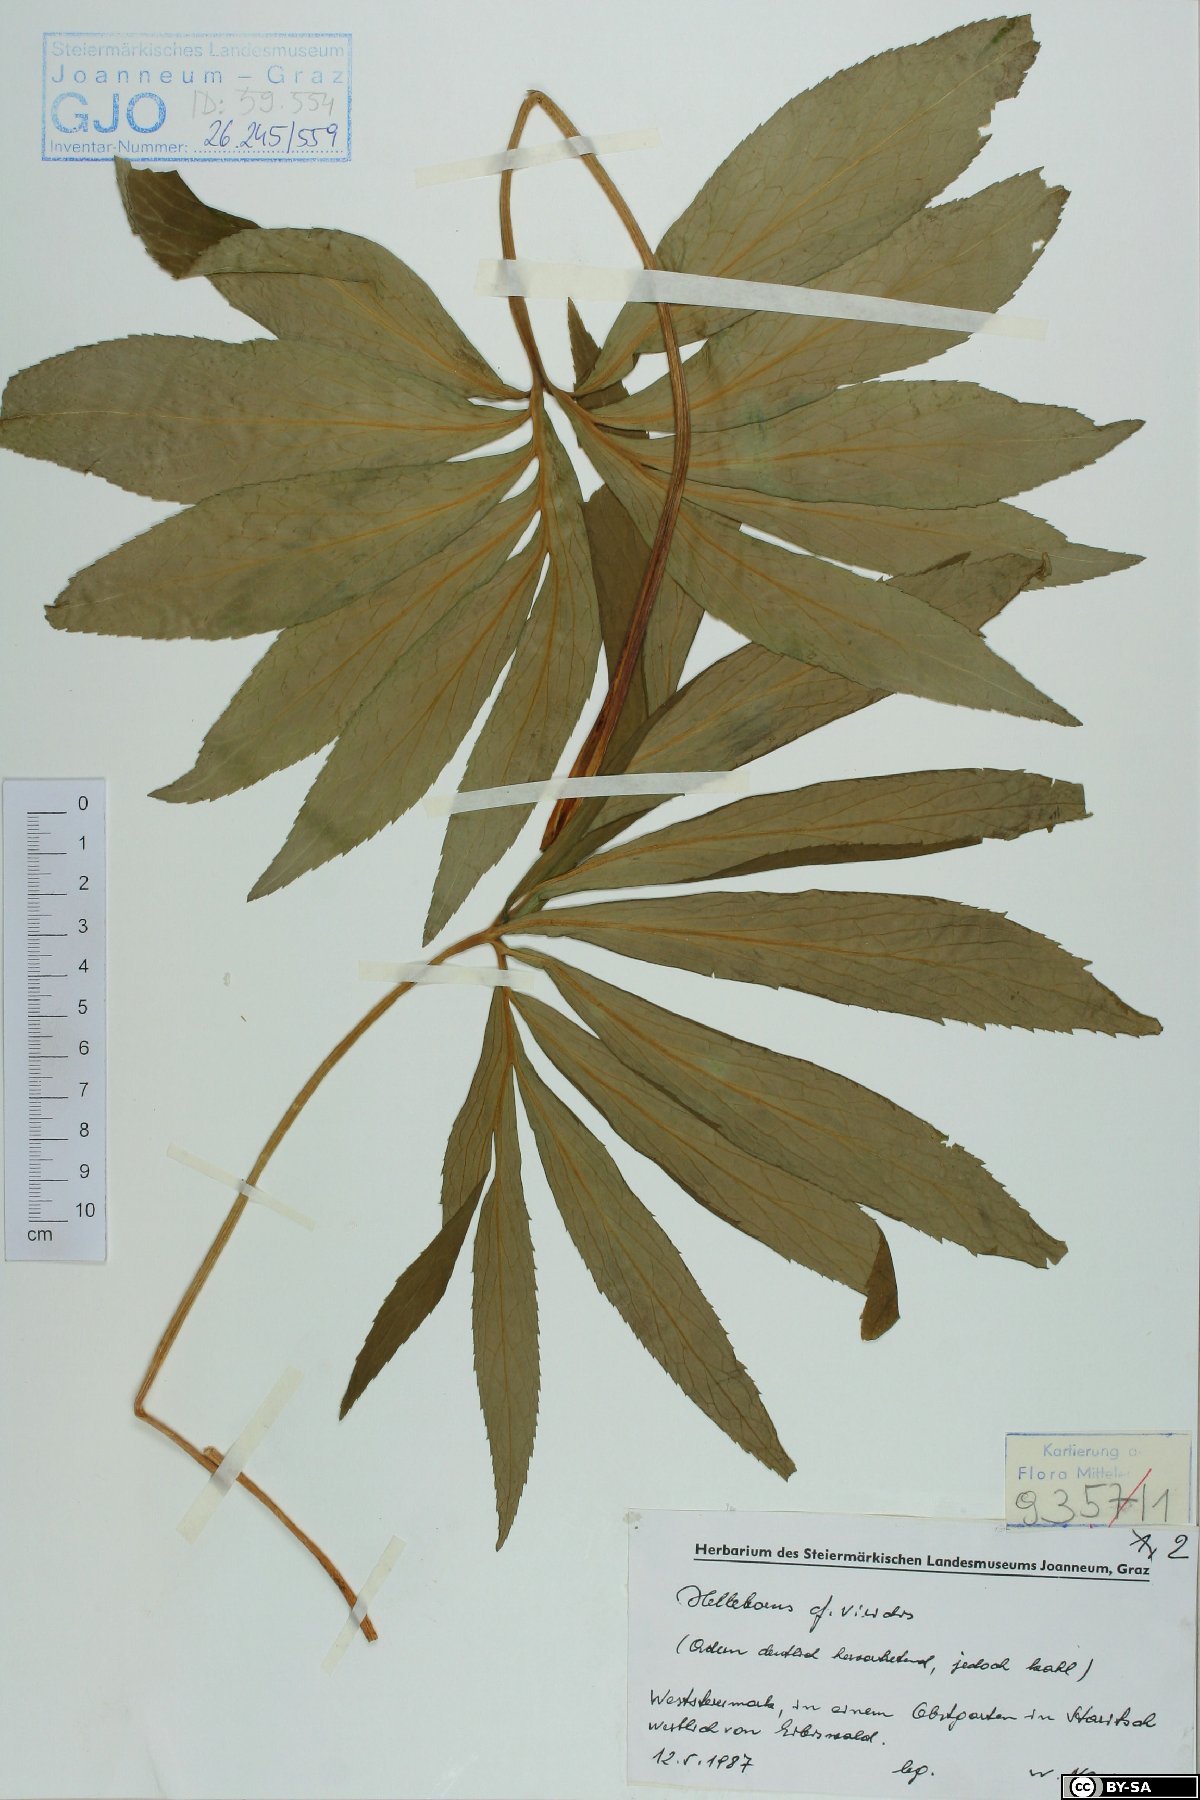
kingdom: Plantae
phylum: Tracheophyta
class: Magnoliopsida
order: Ranunculales
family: Ranunculaceae
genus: Helleborus
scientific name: Helleborus dumetorum
